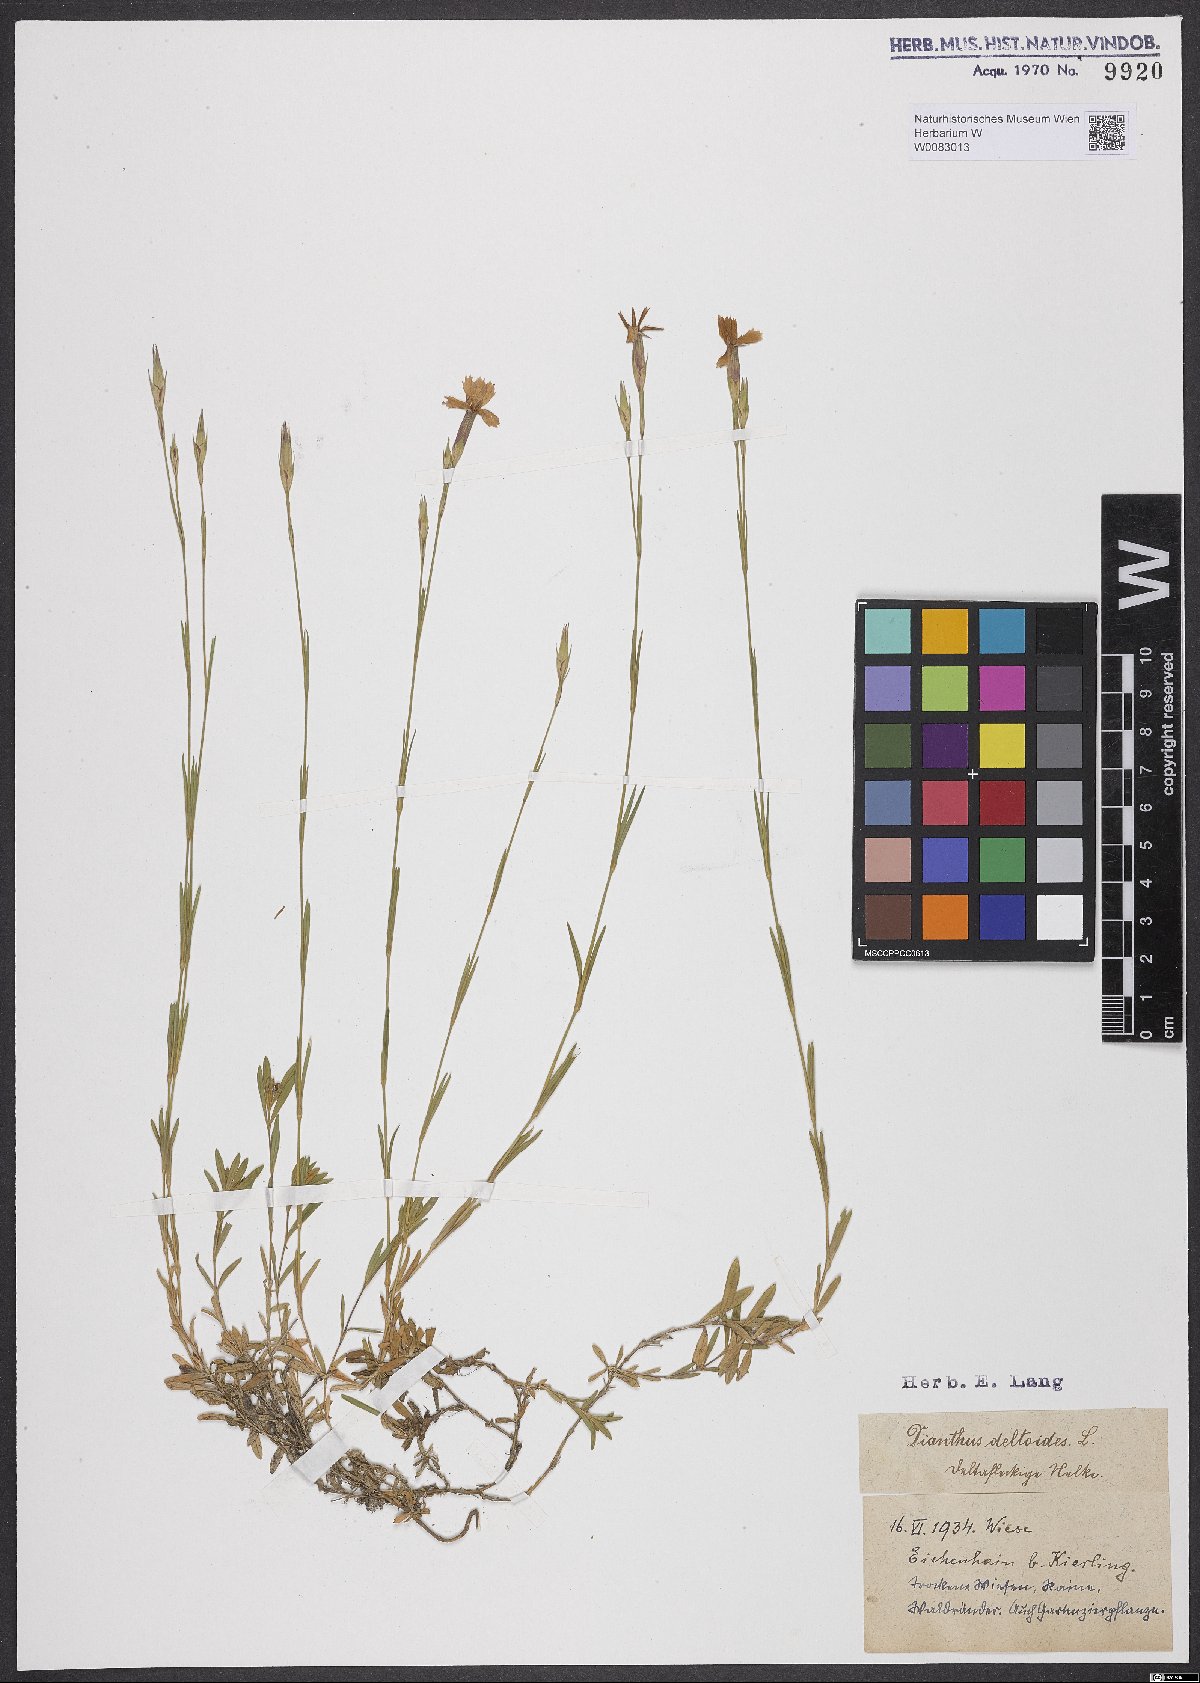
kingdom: Plantae
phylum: Tracheophyta
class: Magnoliopsida
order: Caryophyllales
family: Caryophyllaceae
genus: Dianthus
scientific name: Dianthus deltoides
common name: Maiden pink
